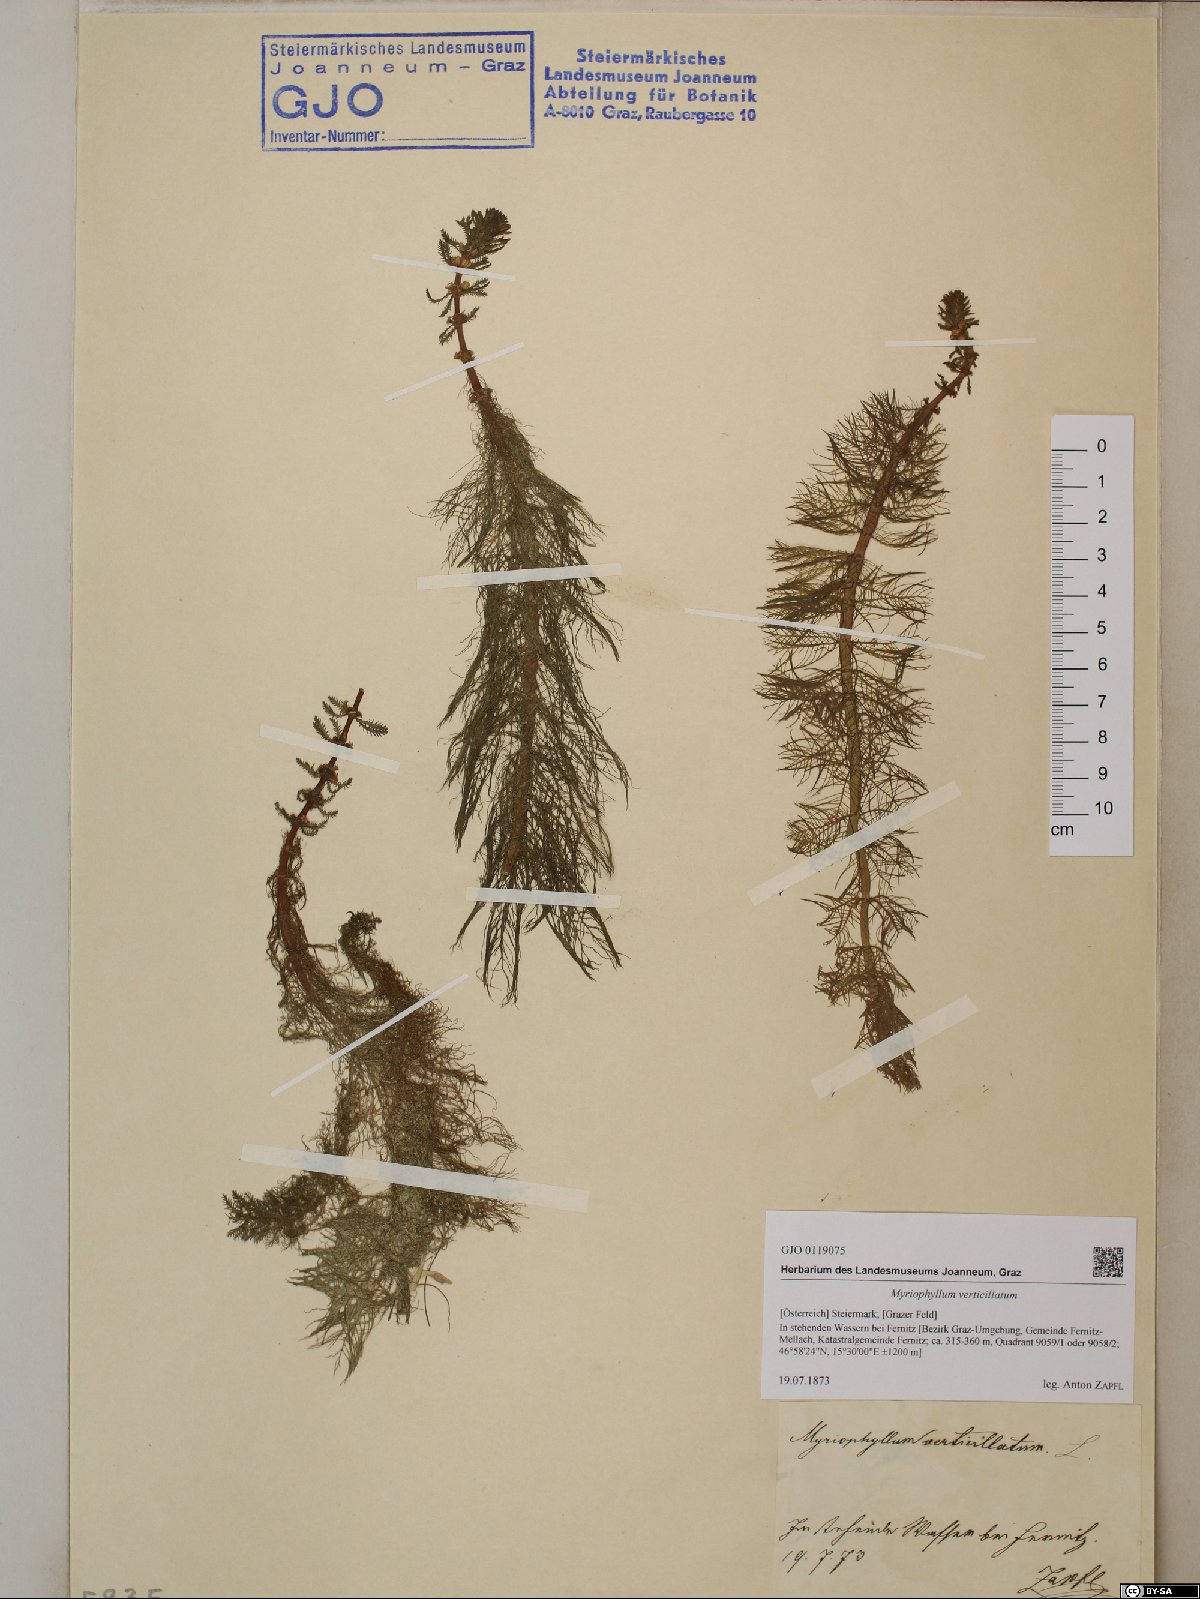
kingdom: Plantae
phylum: Tracheophyta
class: Magnoliopsida
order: Saxifragales
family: Haloragaceae
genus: Myriophyllum
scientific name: Myriophyllum verticillatum
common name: Whorled water-milfoil
